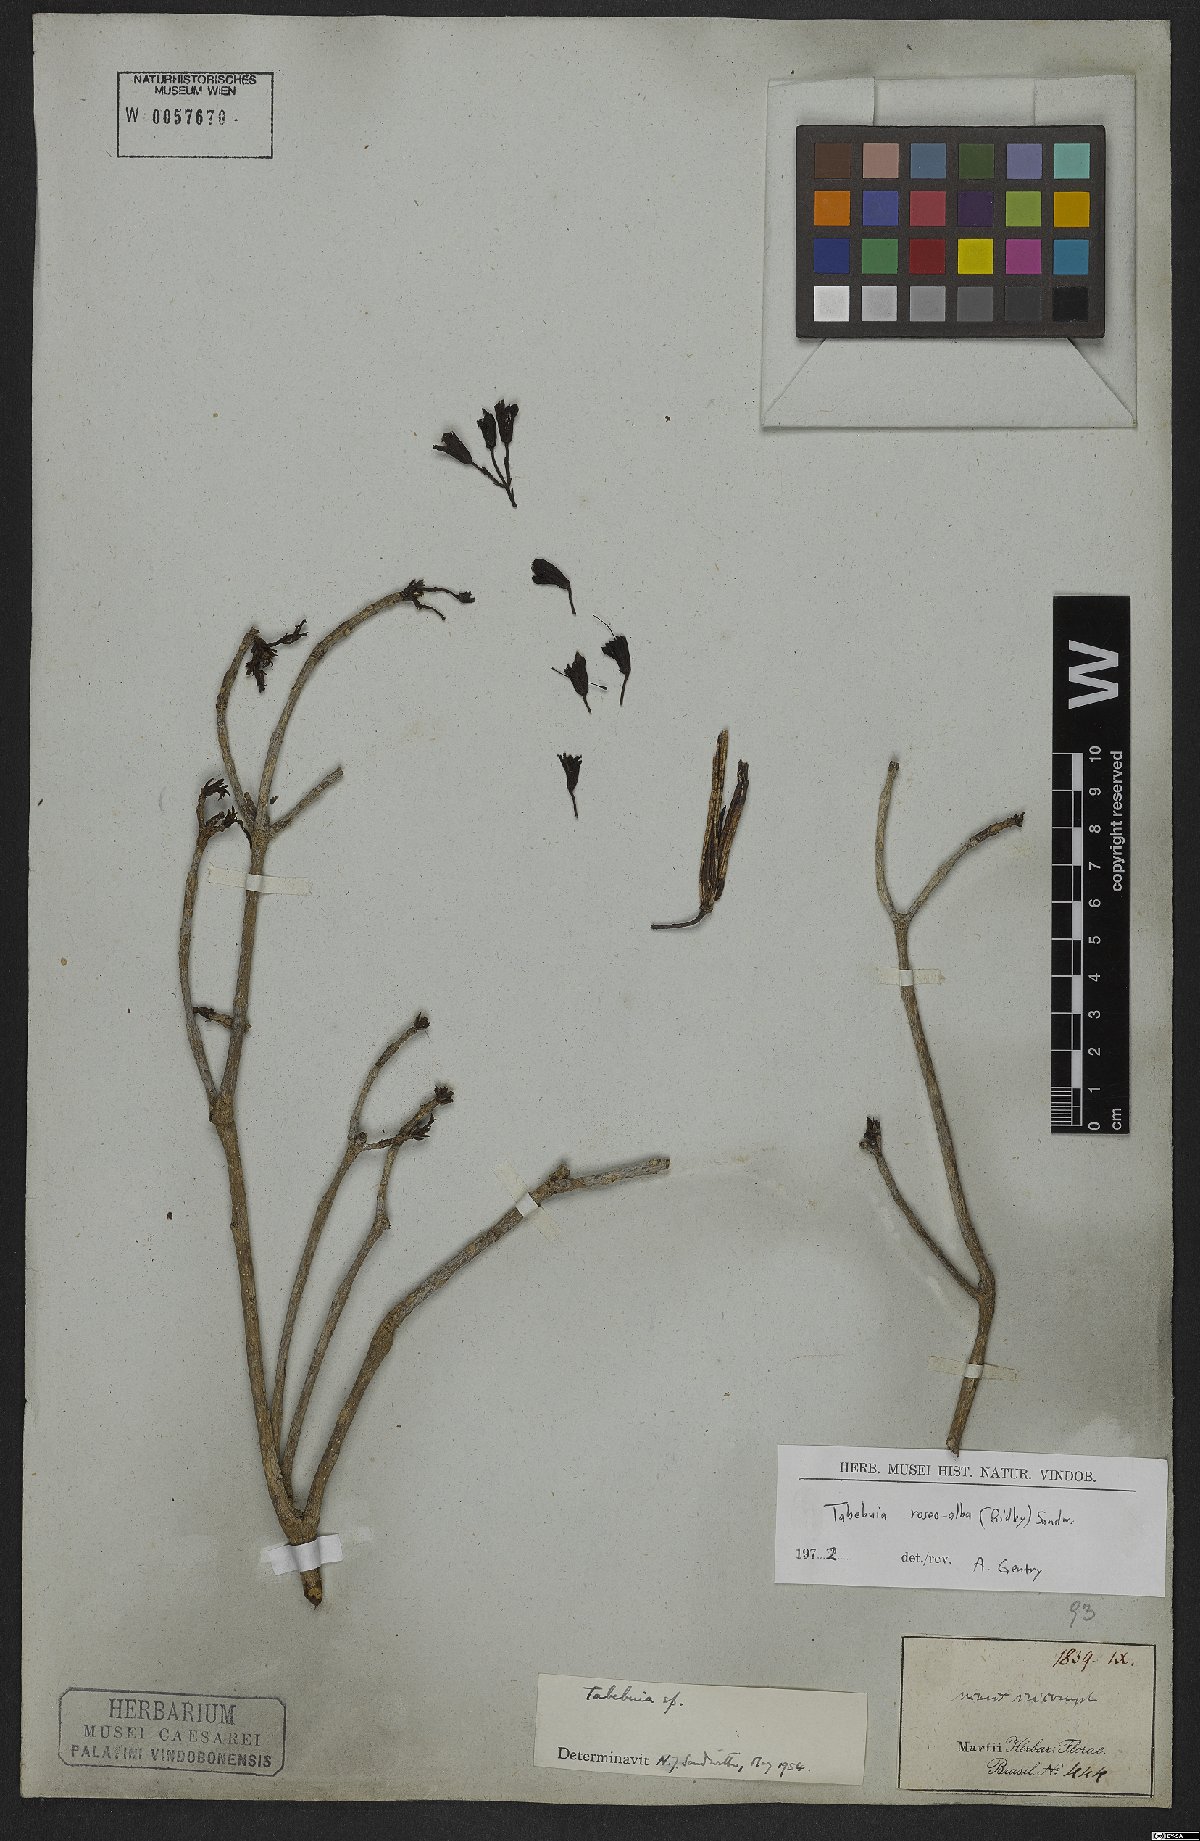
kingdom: Plantae
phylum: Tracheophyta
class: Magnoliopsida
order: Lamiales
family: Bignoniaceae
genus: Tabebuia
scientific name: Tabebuia roseoalba
